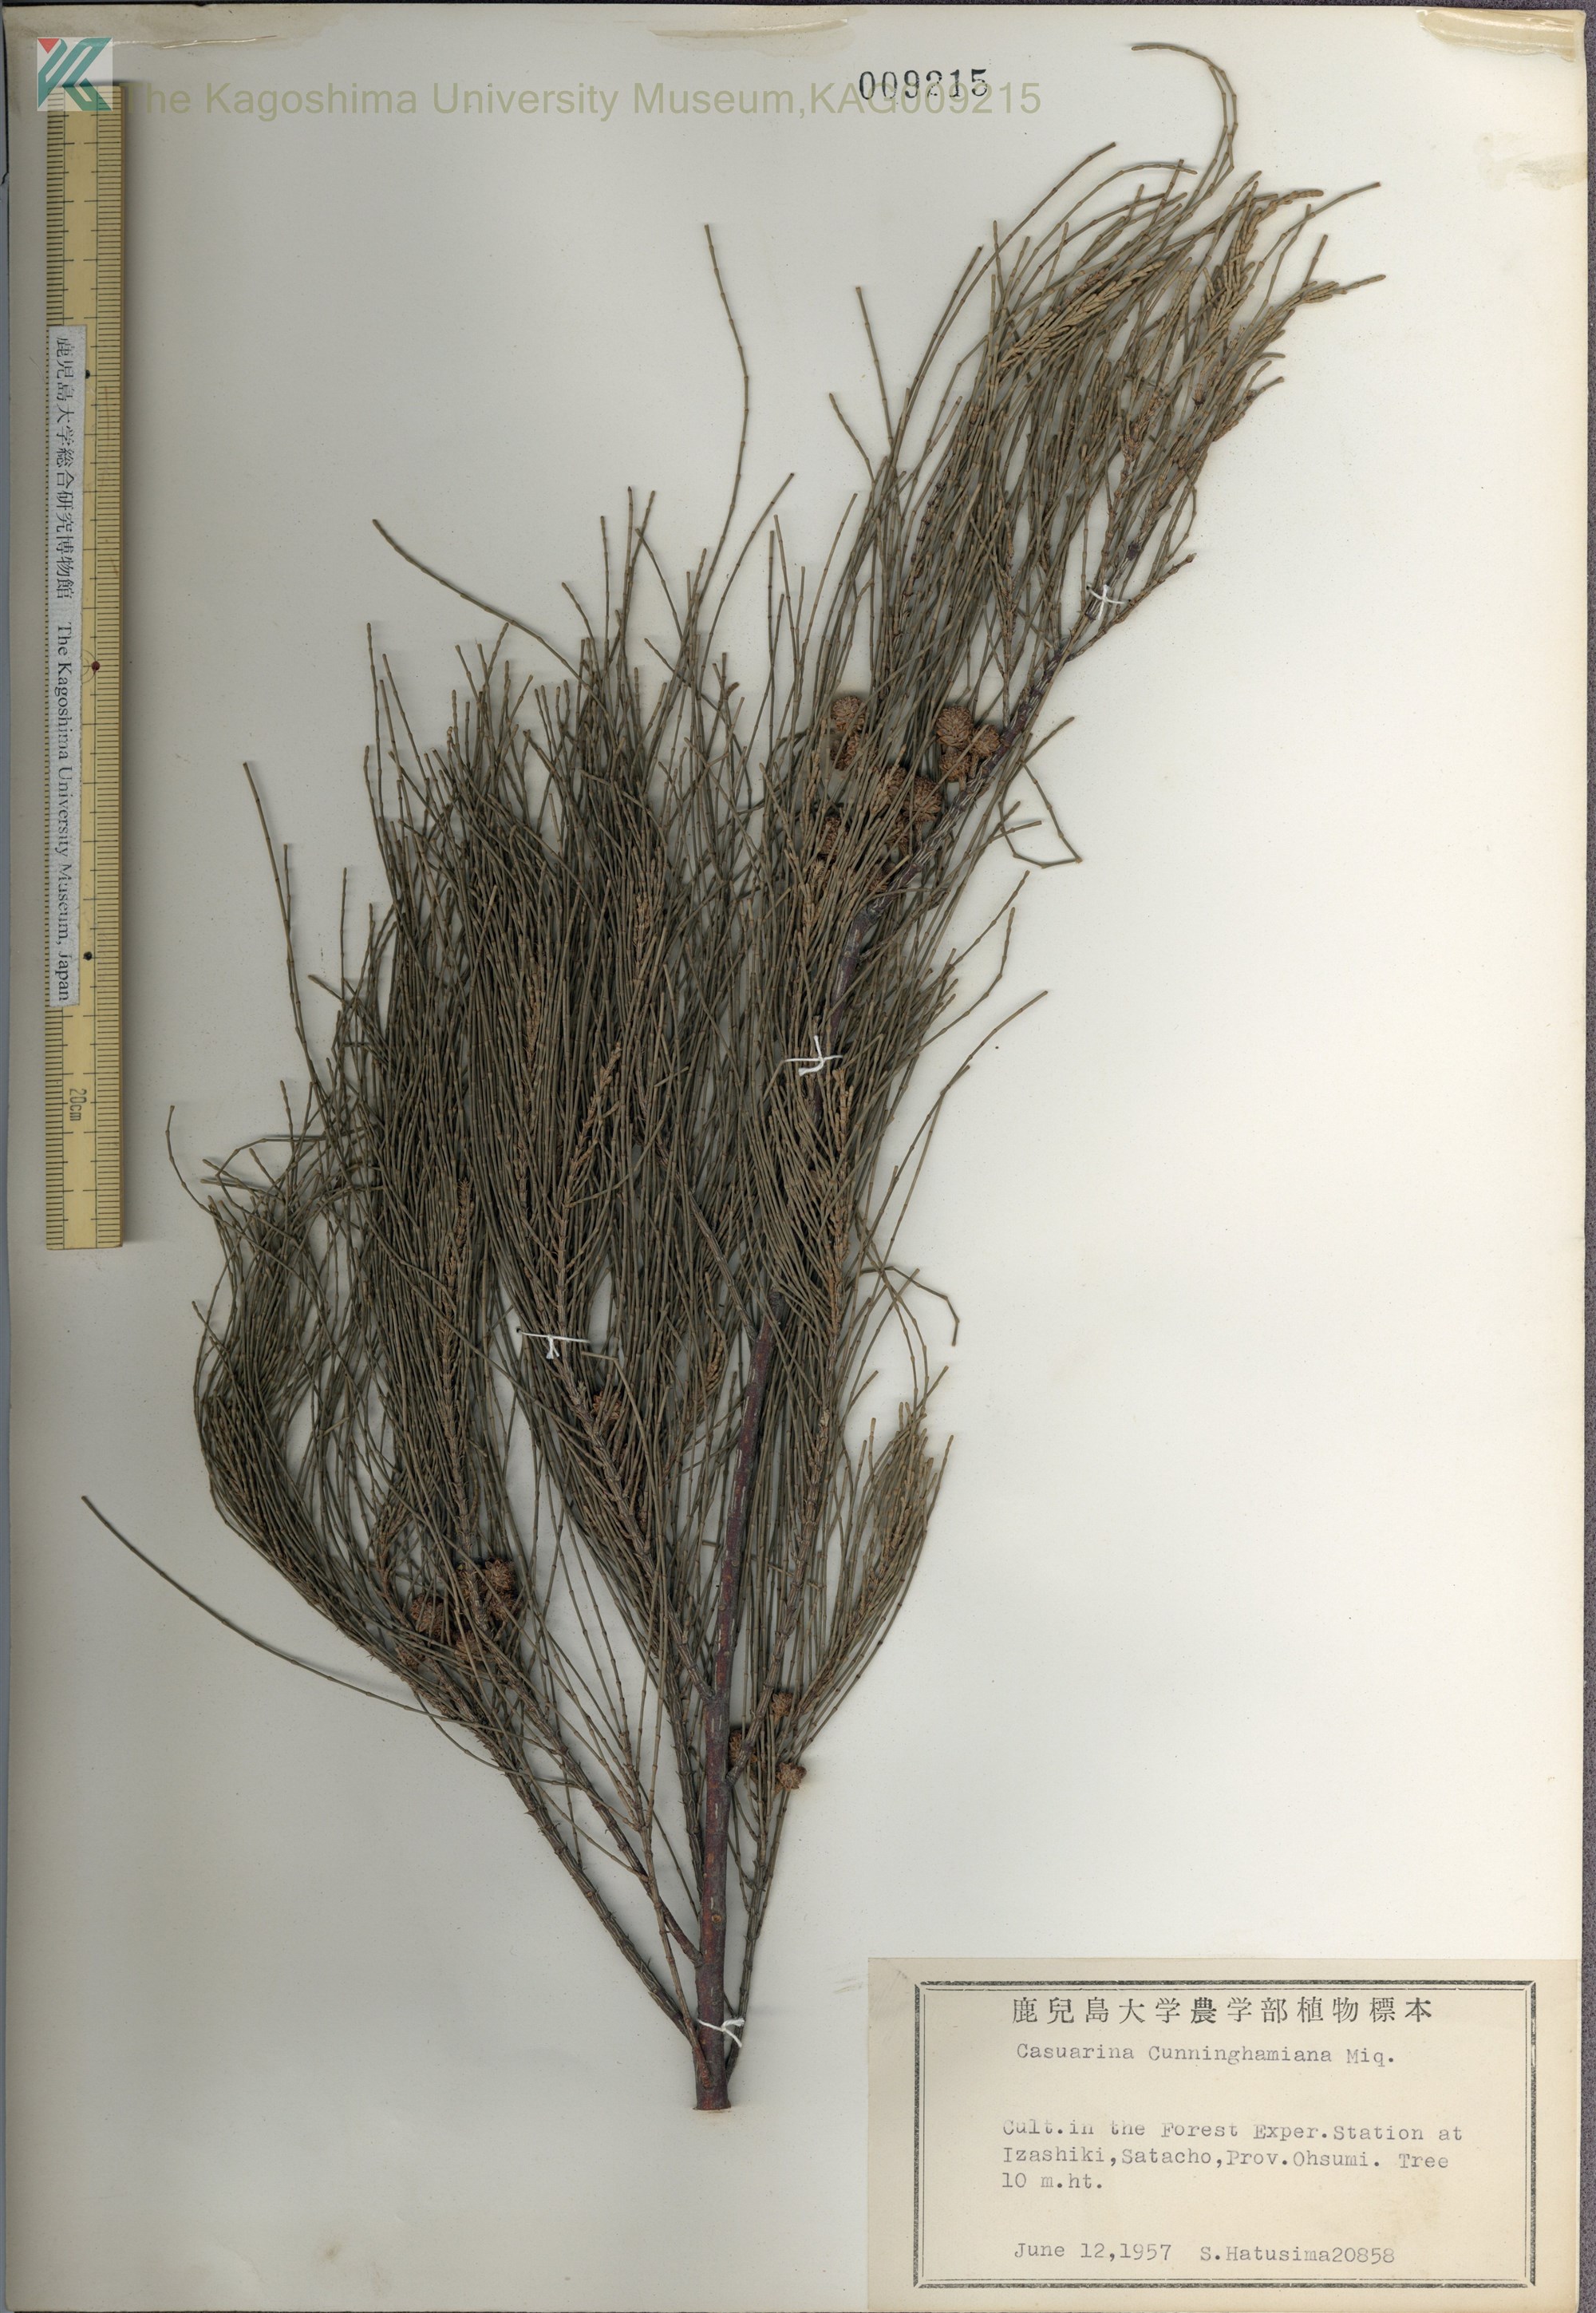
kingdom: Plantae
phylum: Tracheophyta
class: Magnoliopsida
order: Fagales
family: Casuarinaceae
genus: Casuarina
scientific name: Casuarina cunninghamiana
